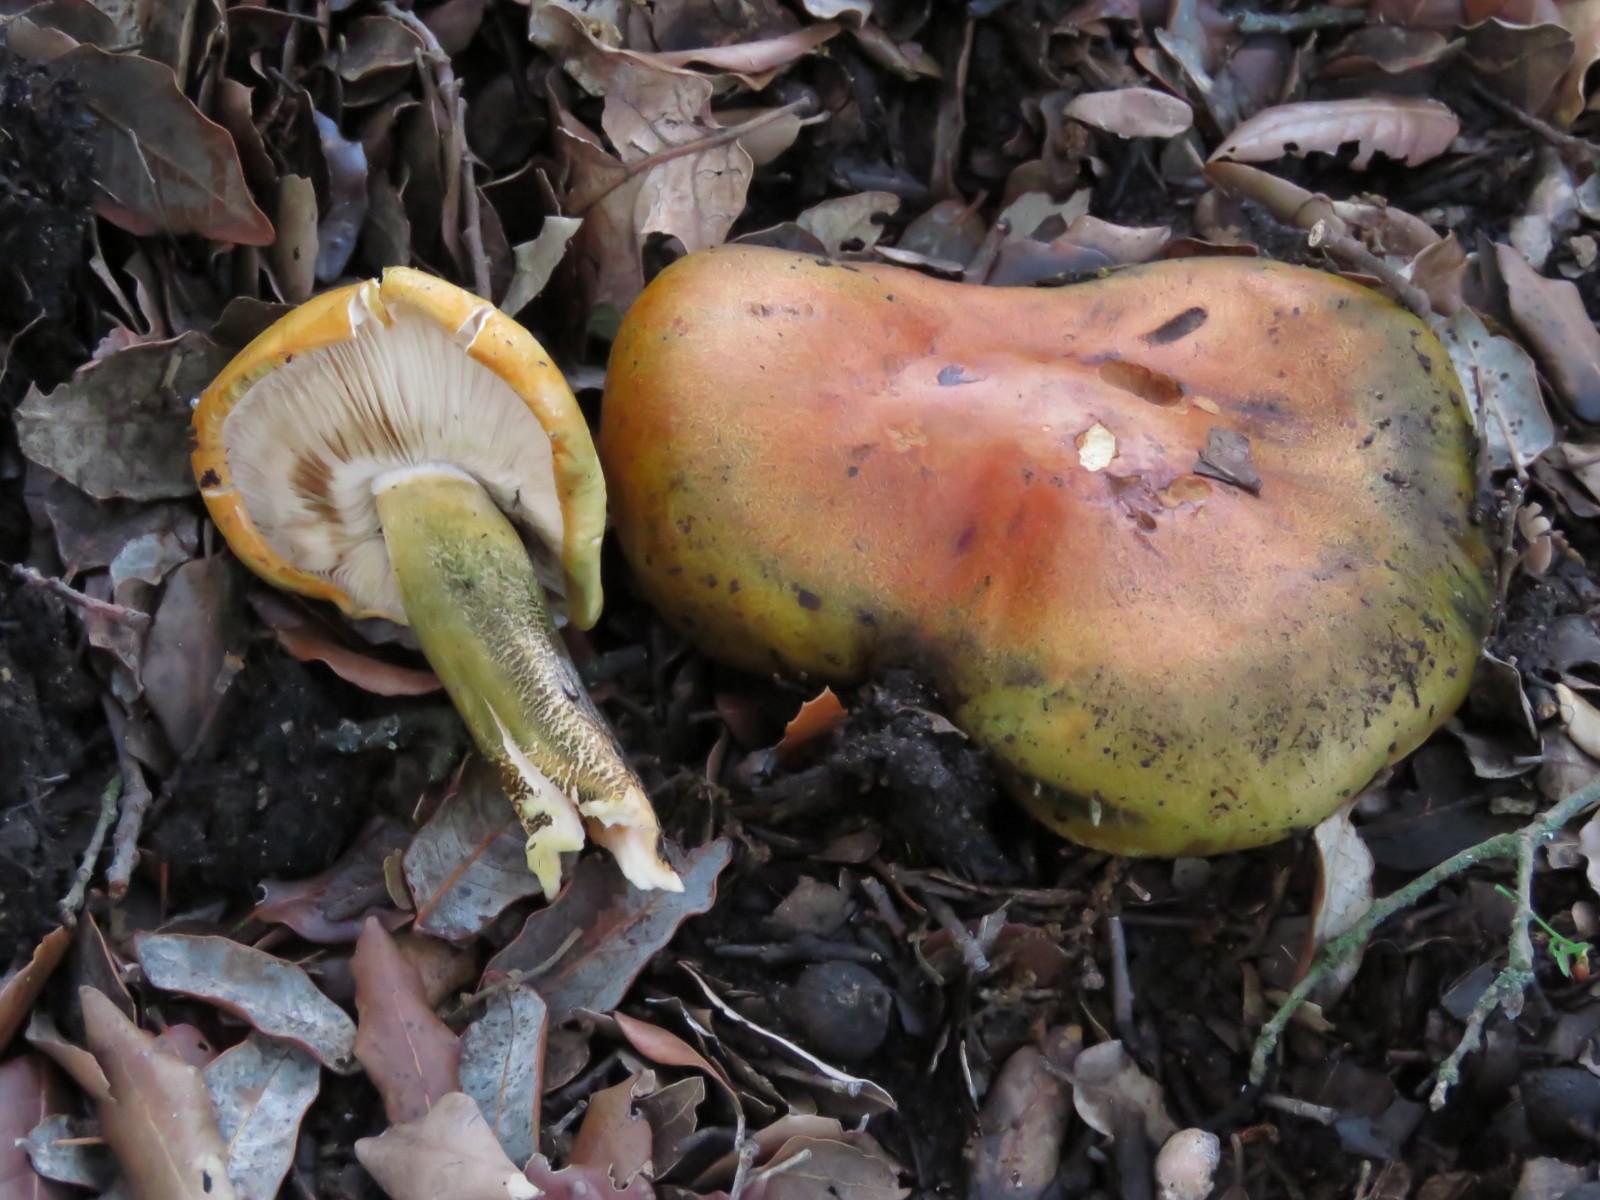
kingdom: Fungi
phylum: Basidiomycota
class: Agaricomycetes
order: Agaricales
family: Tricholomataceae
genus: Tricholoma
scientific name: Tricholoma aurantium
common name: orangegul ridderhat
